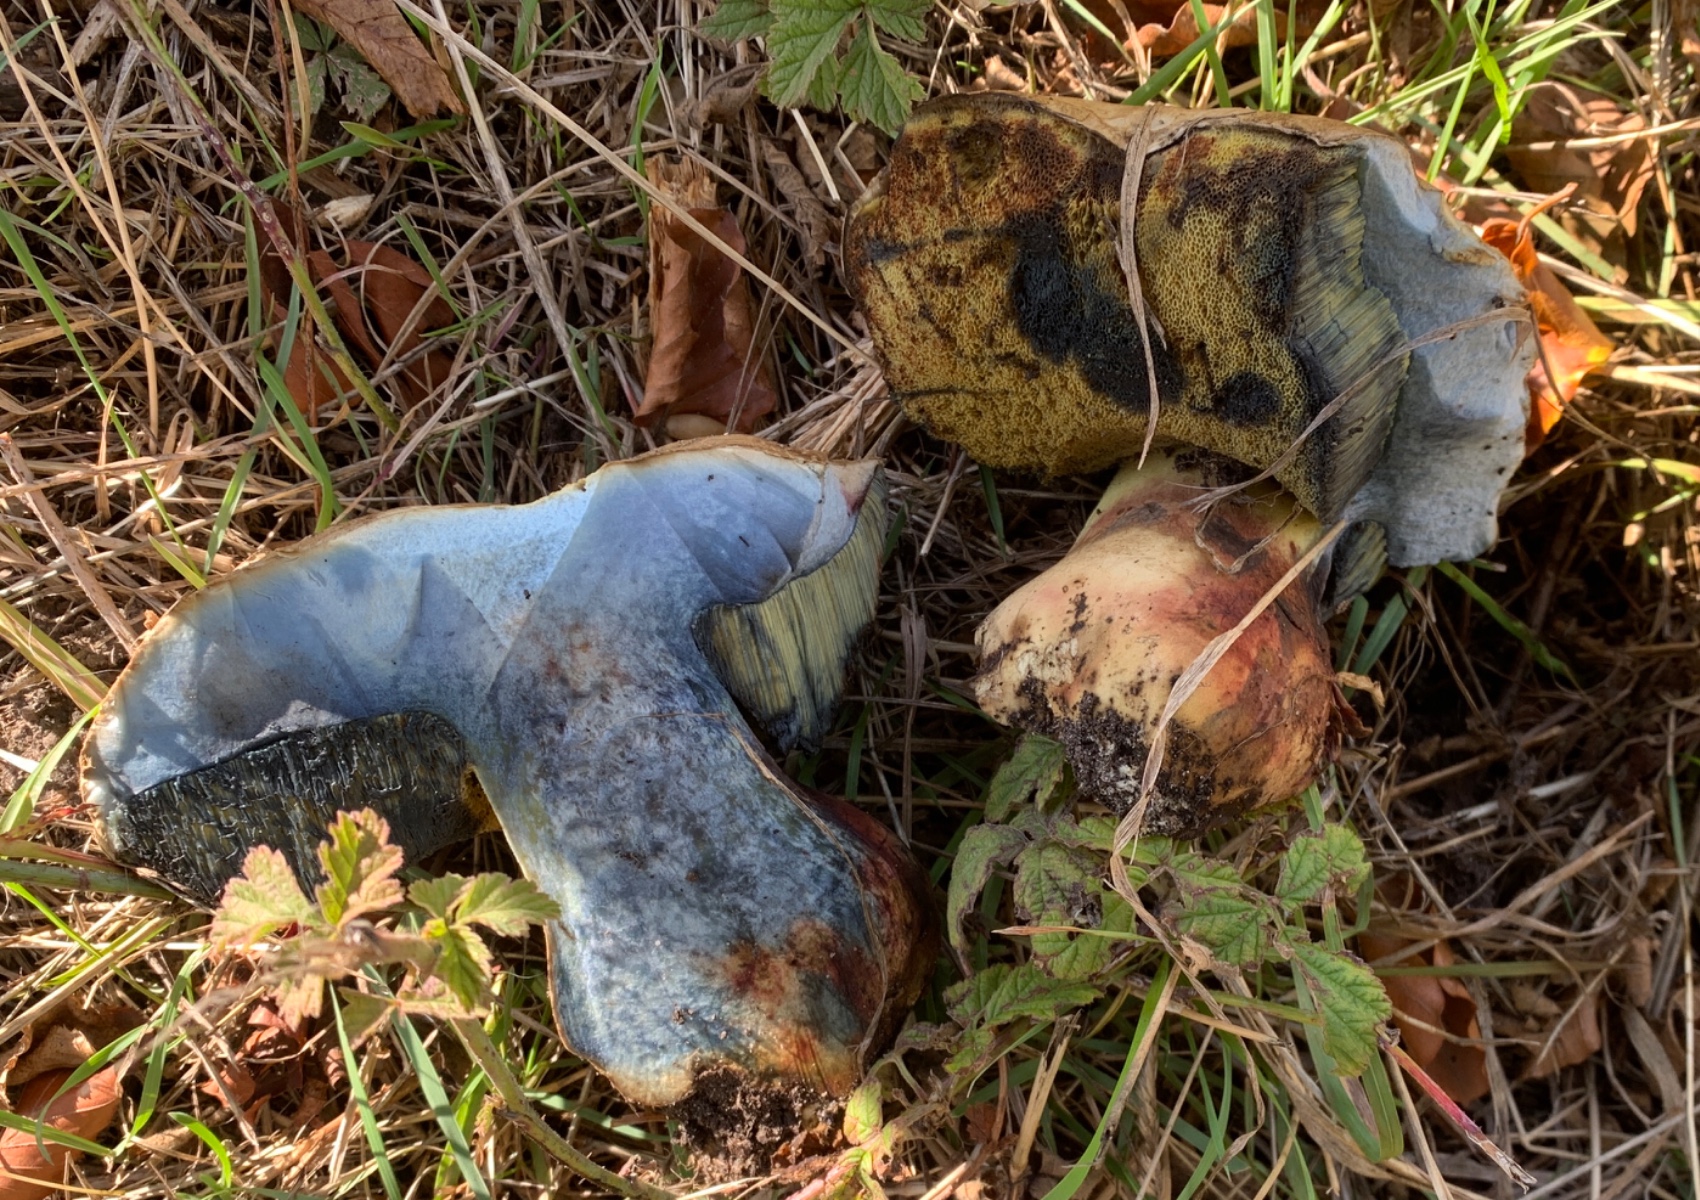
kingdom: Fungi
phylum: Basidiomycota
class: Agaricomycetes
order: Boletales
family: Boletaceae
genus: Caloboletus
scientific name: Caloboletus radicans
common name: rod-rørhat
